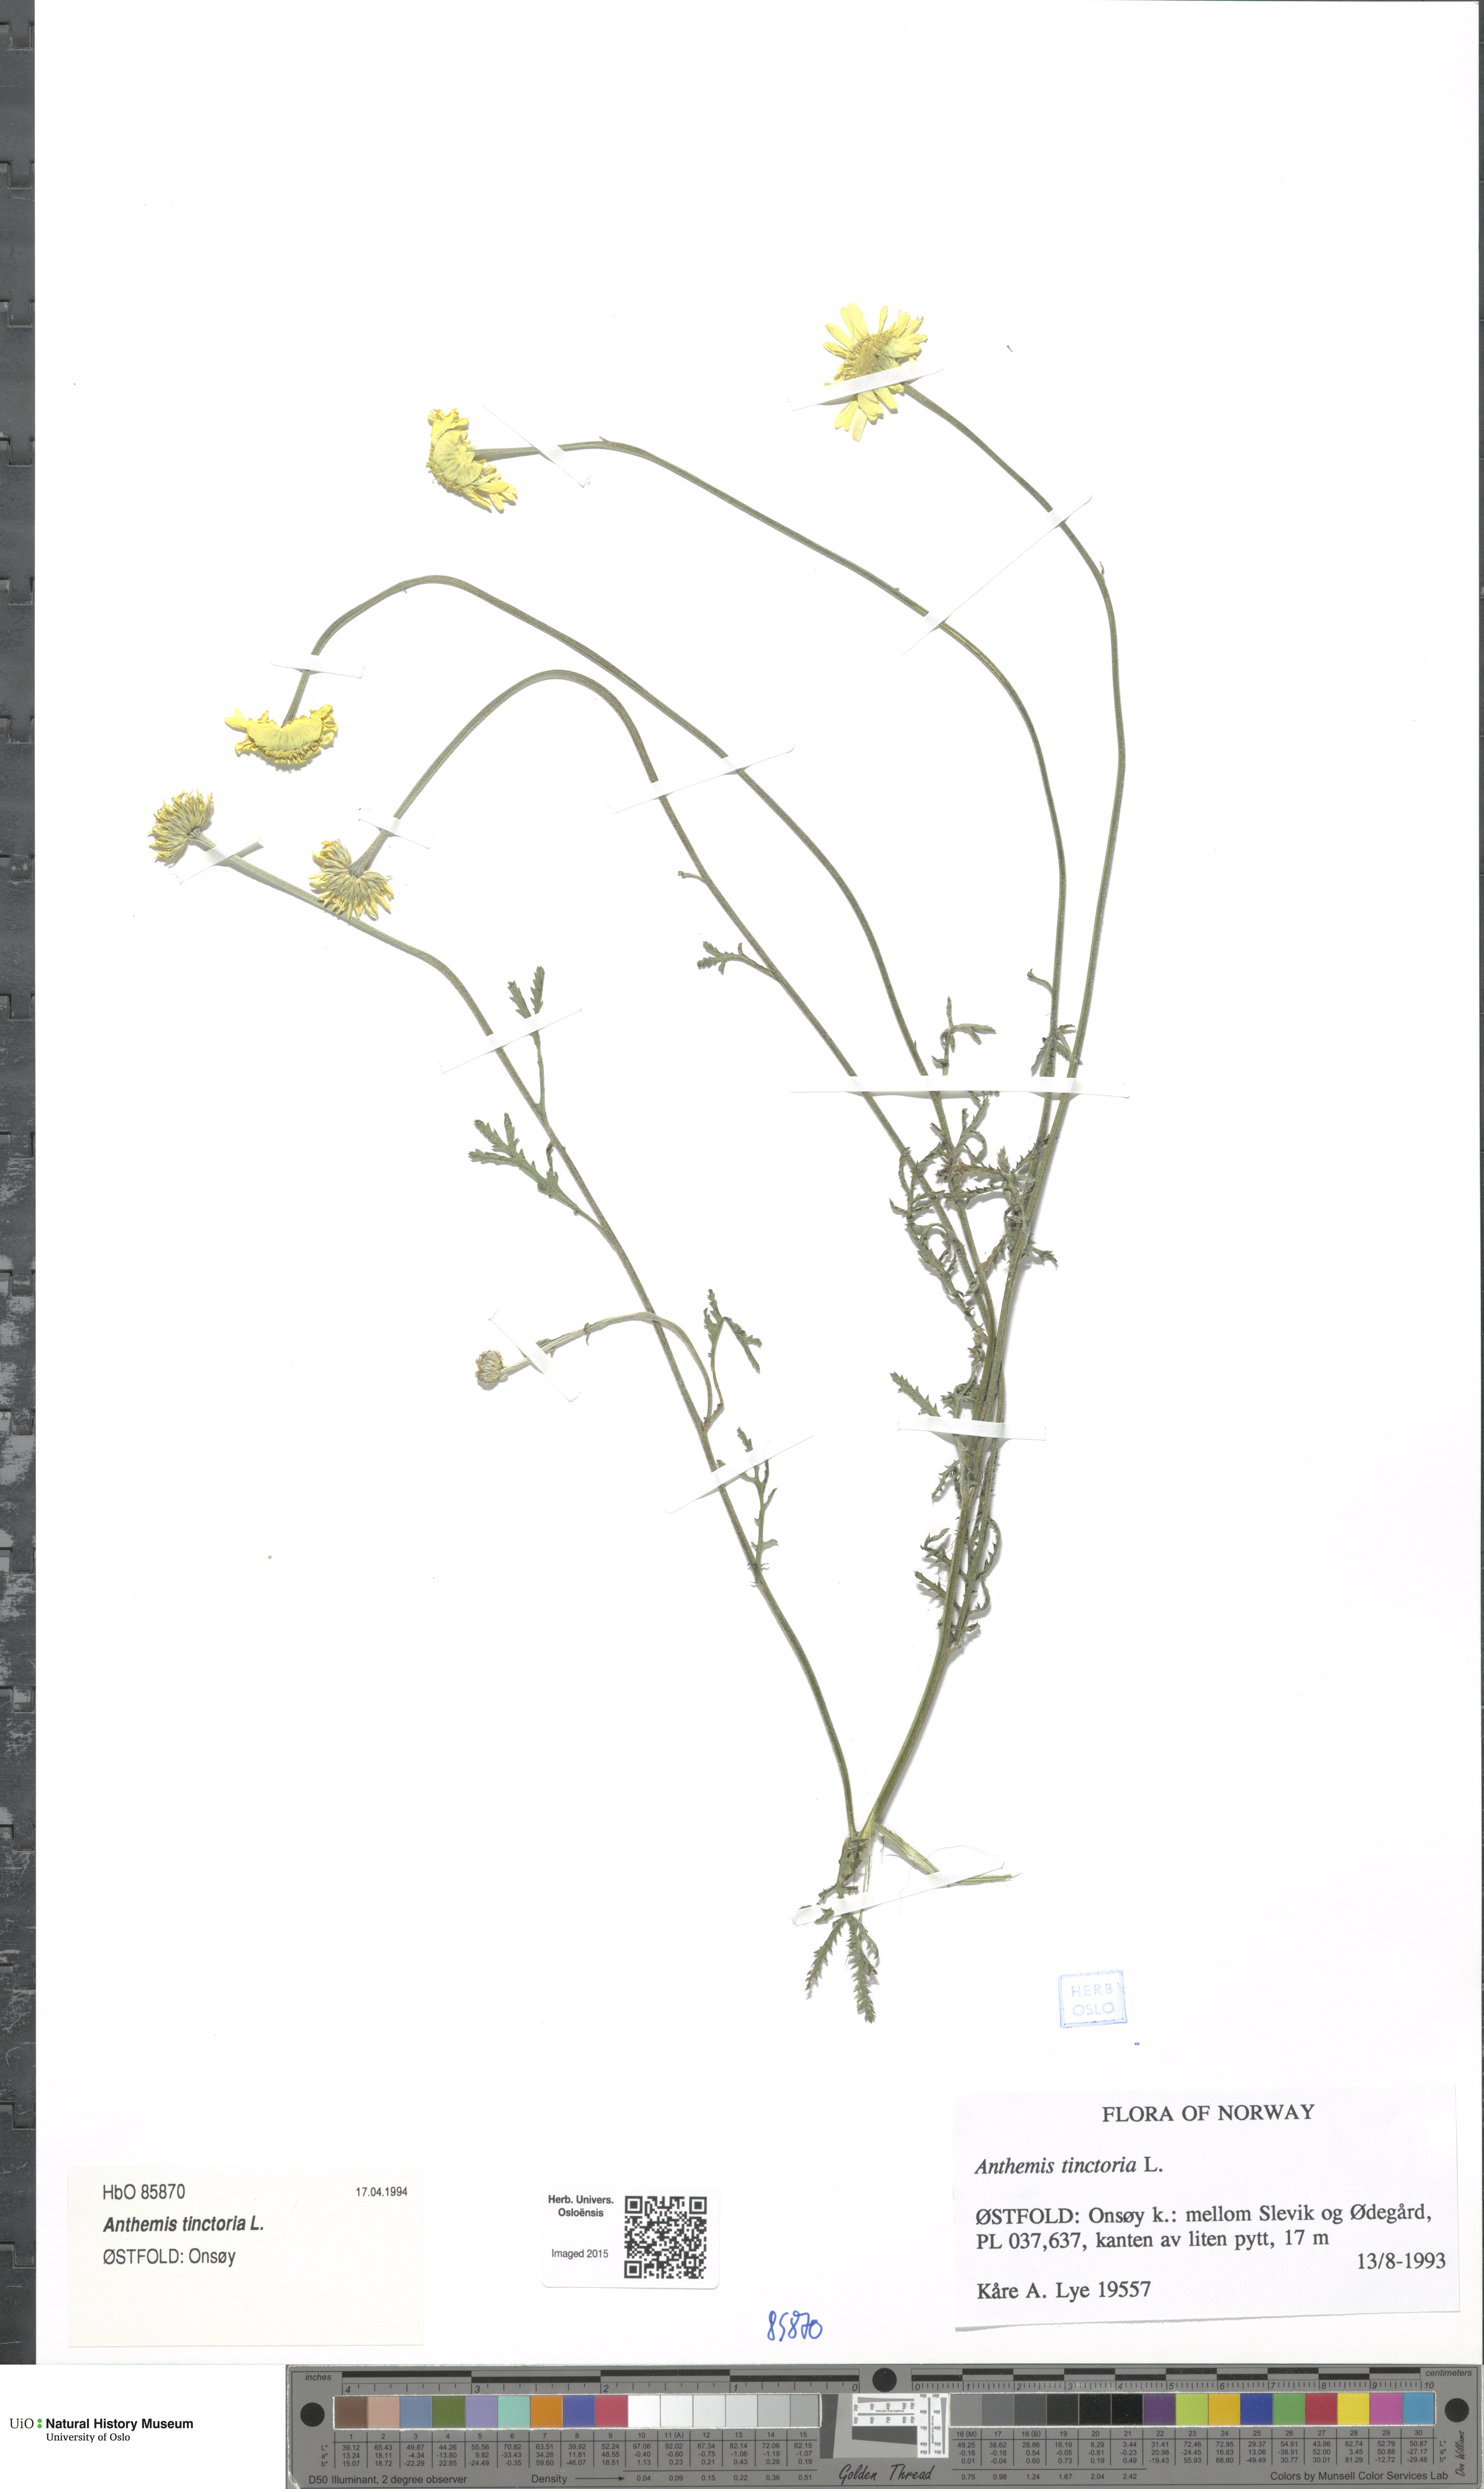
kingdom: Plantae
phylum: Tracheophyta
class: Magnoliopsida
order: Asterales
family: Asteraceae
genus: Cota
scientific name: Cota tinctoria
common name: Golden chamomile
